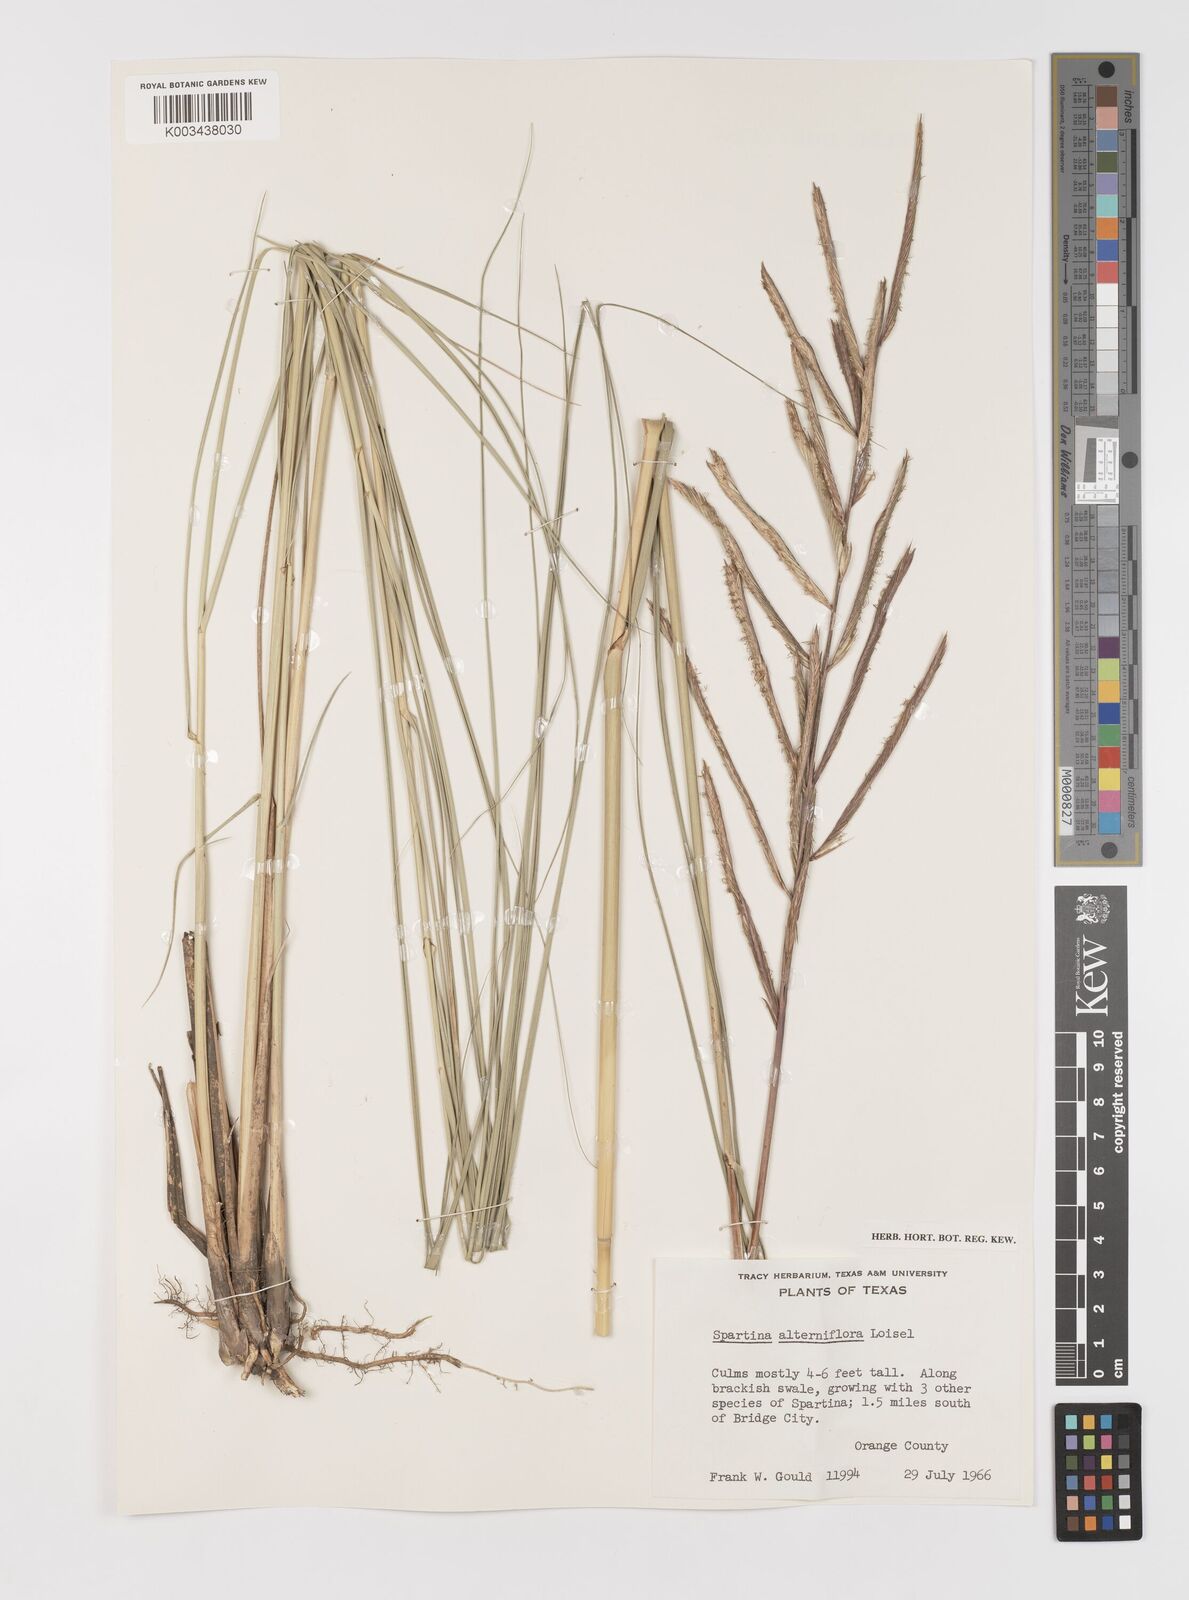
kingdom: Plantae
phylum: Tracheophyta
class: Liliopsida
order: Poales
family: Poaceae
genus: Sporobolus
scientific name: Sporobolus alterniflorus
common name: Atlantic cordgrass
